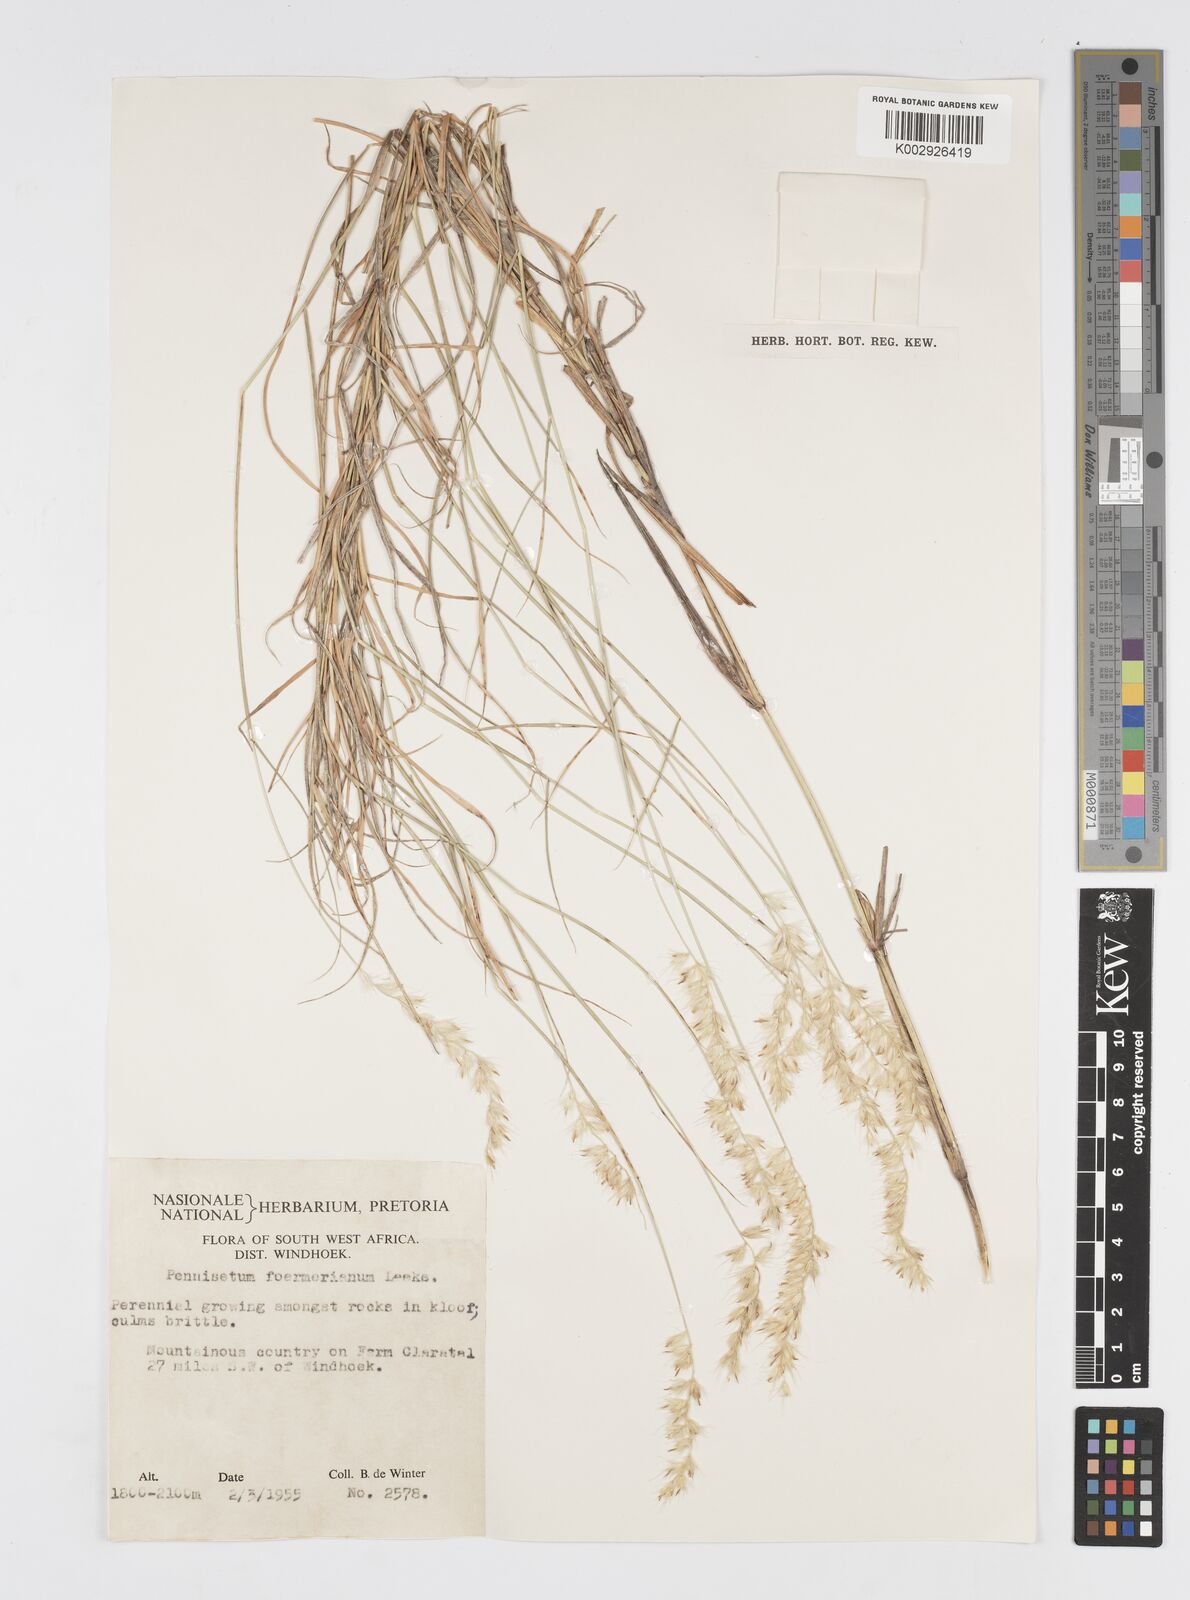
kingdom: Plantae
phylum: Tracheophyta
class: Liliopsida
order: Poales
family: Poaceae
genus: Cenchrus
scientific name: Cenchrus foermerianus
